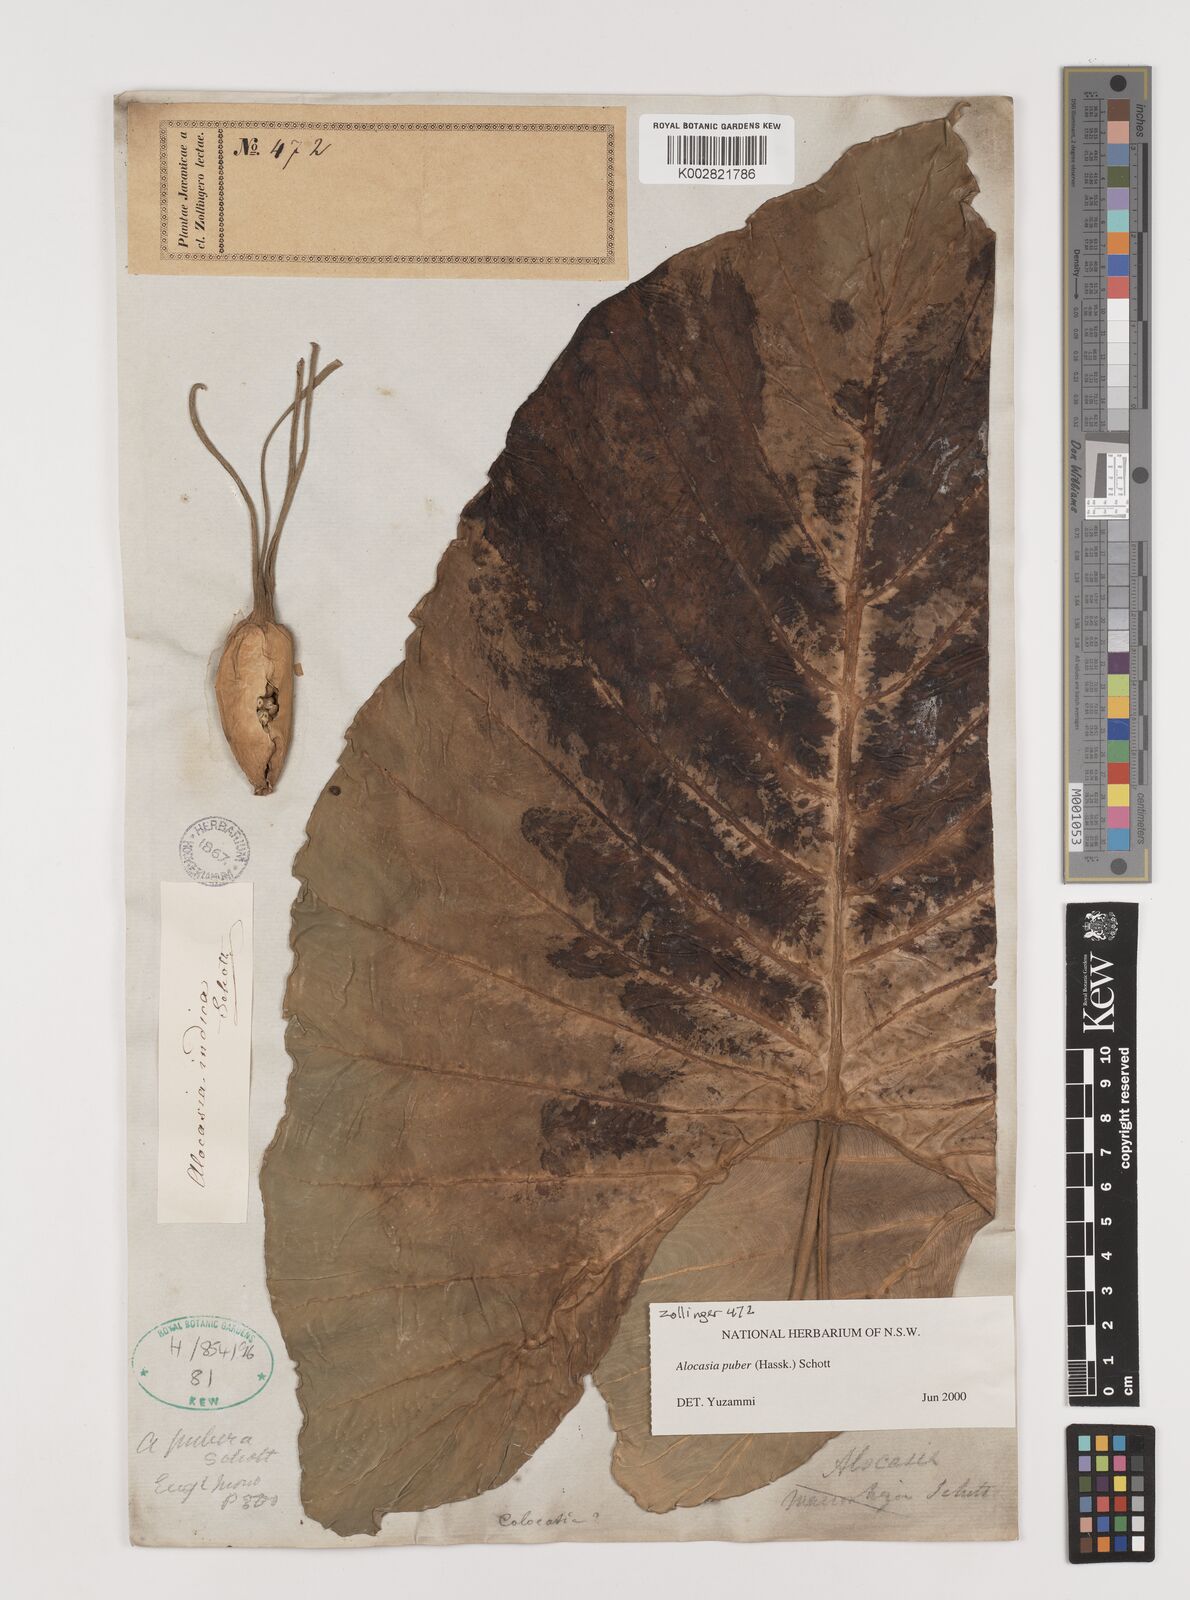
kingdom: Plantae
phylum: Tracheophyta
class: Liliopsida
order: Alismatales
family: Araceae
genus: Alocasia
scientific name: Alocasia puber
